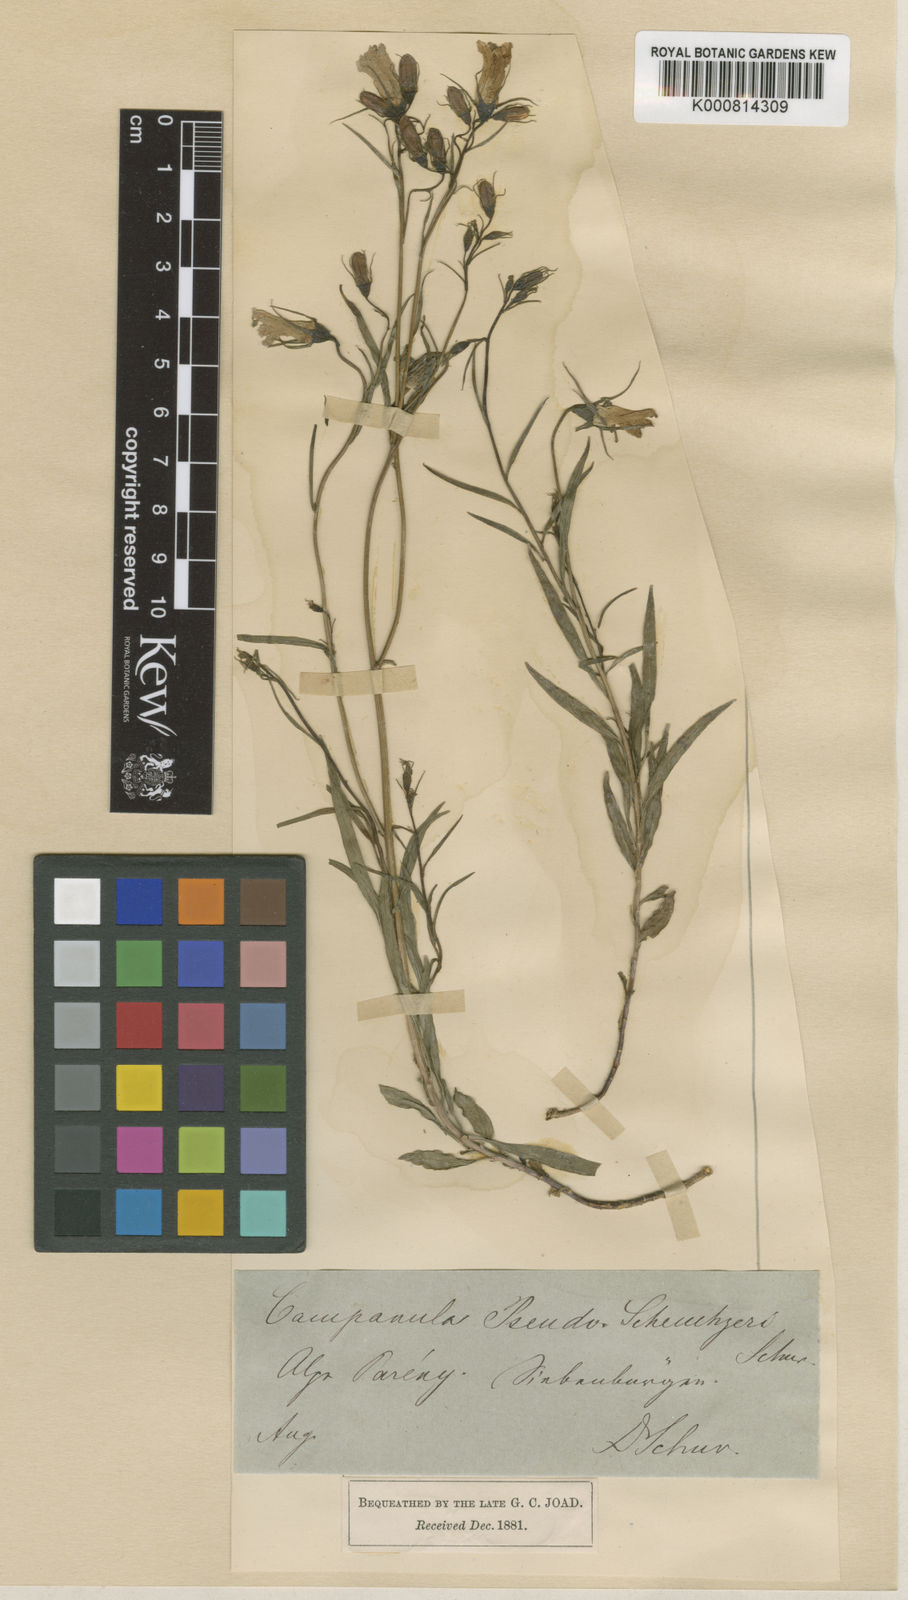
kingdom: Plantae
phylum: Tracheophyta
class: Magnoliopsida
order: Asterales
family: Campanulaceae
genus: Campanula
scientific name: Campanula serrata
